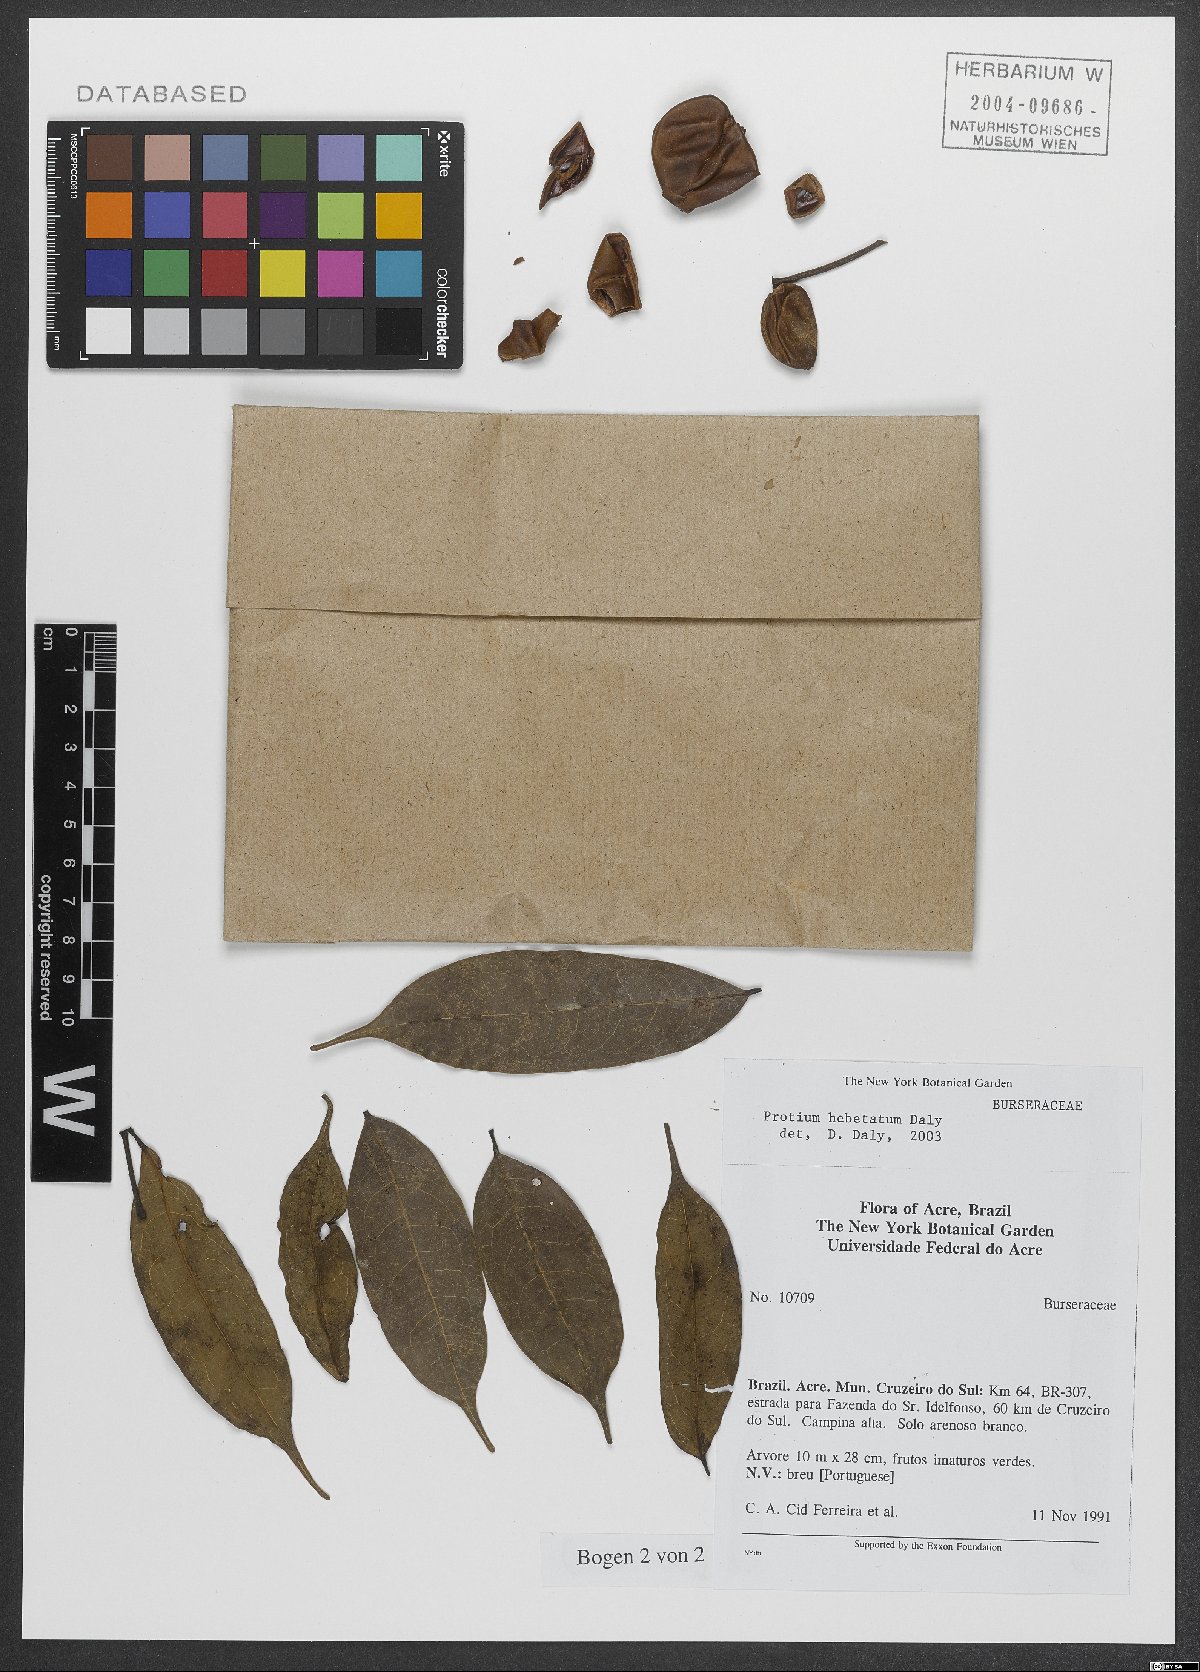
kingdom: Plantae
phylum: Tracheophyta
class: Magnoliopsida
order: Sapindales
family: Burseraceae
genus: Protium
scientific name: Protium hebetatum
